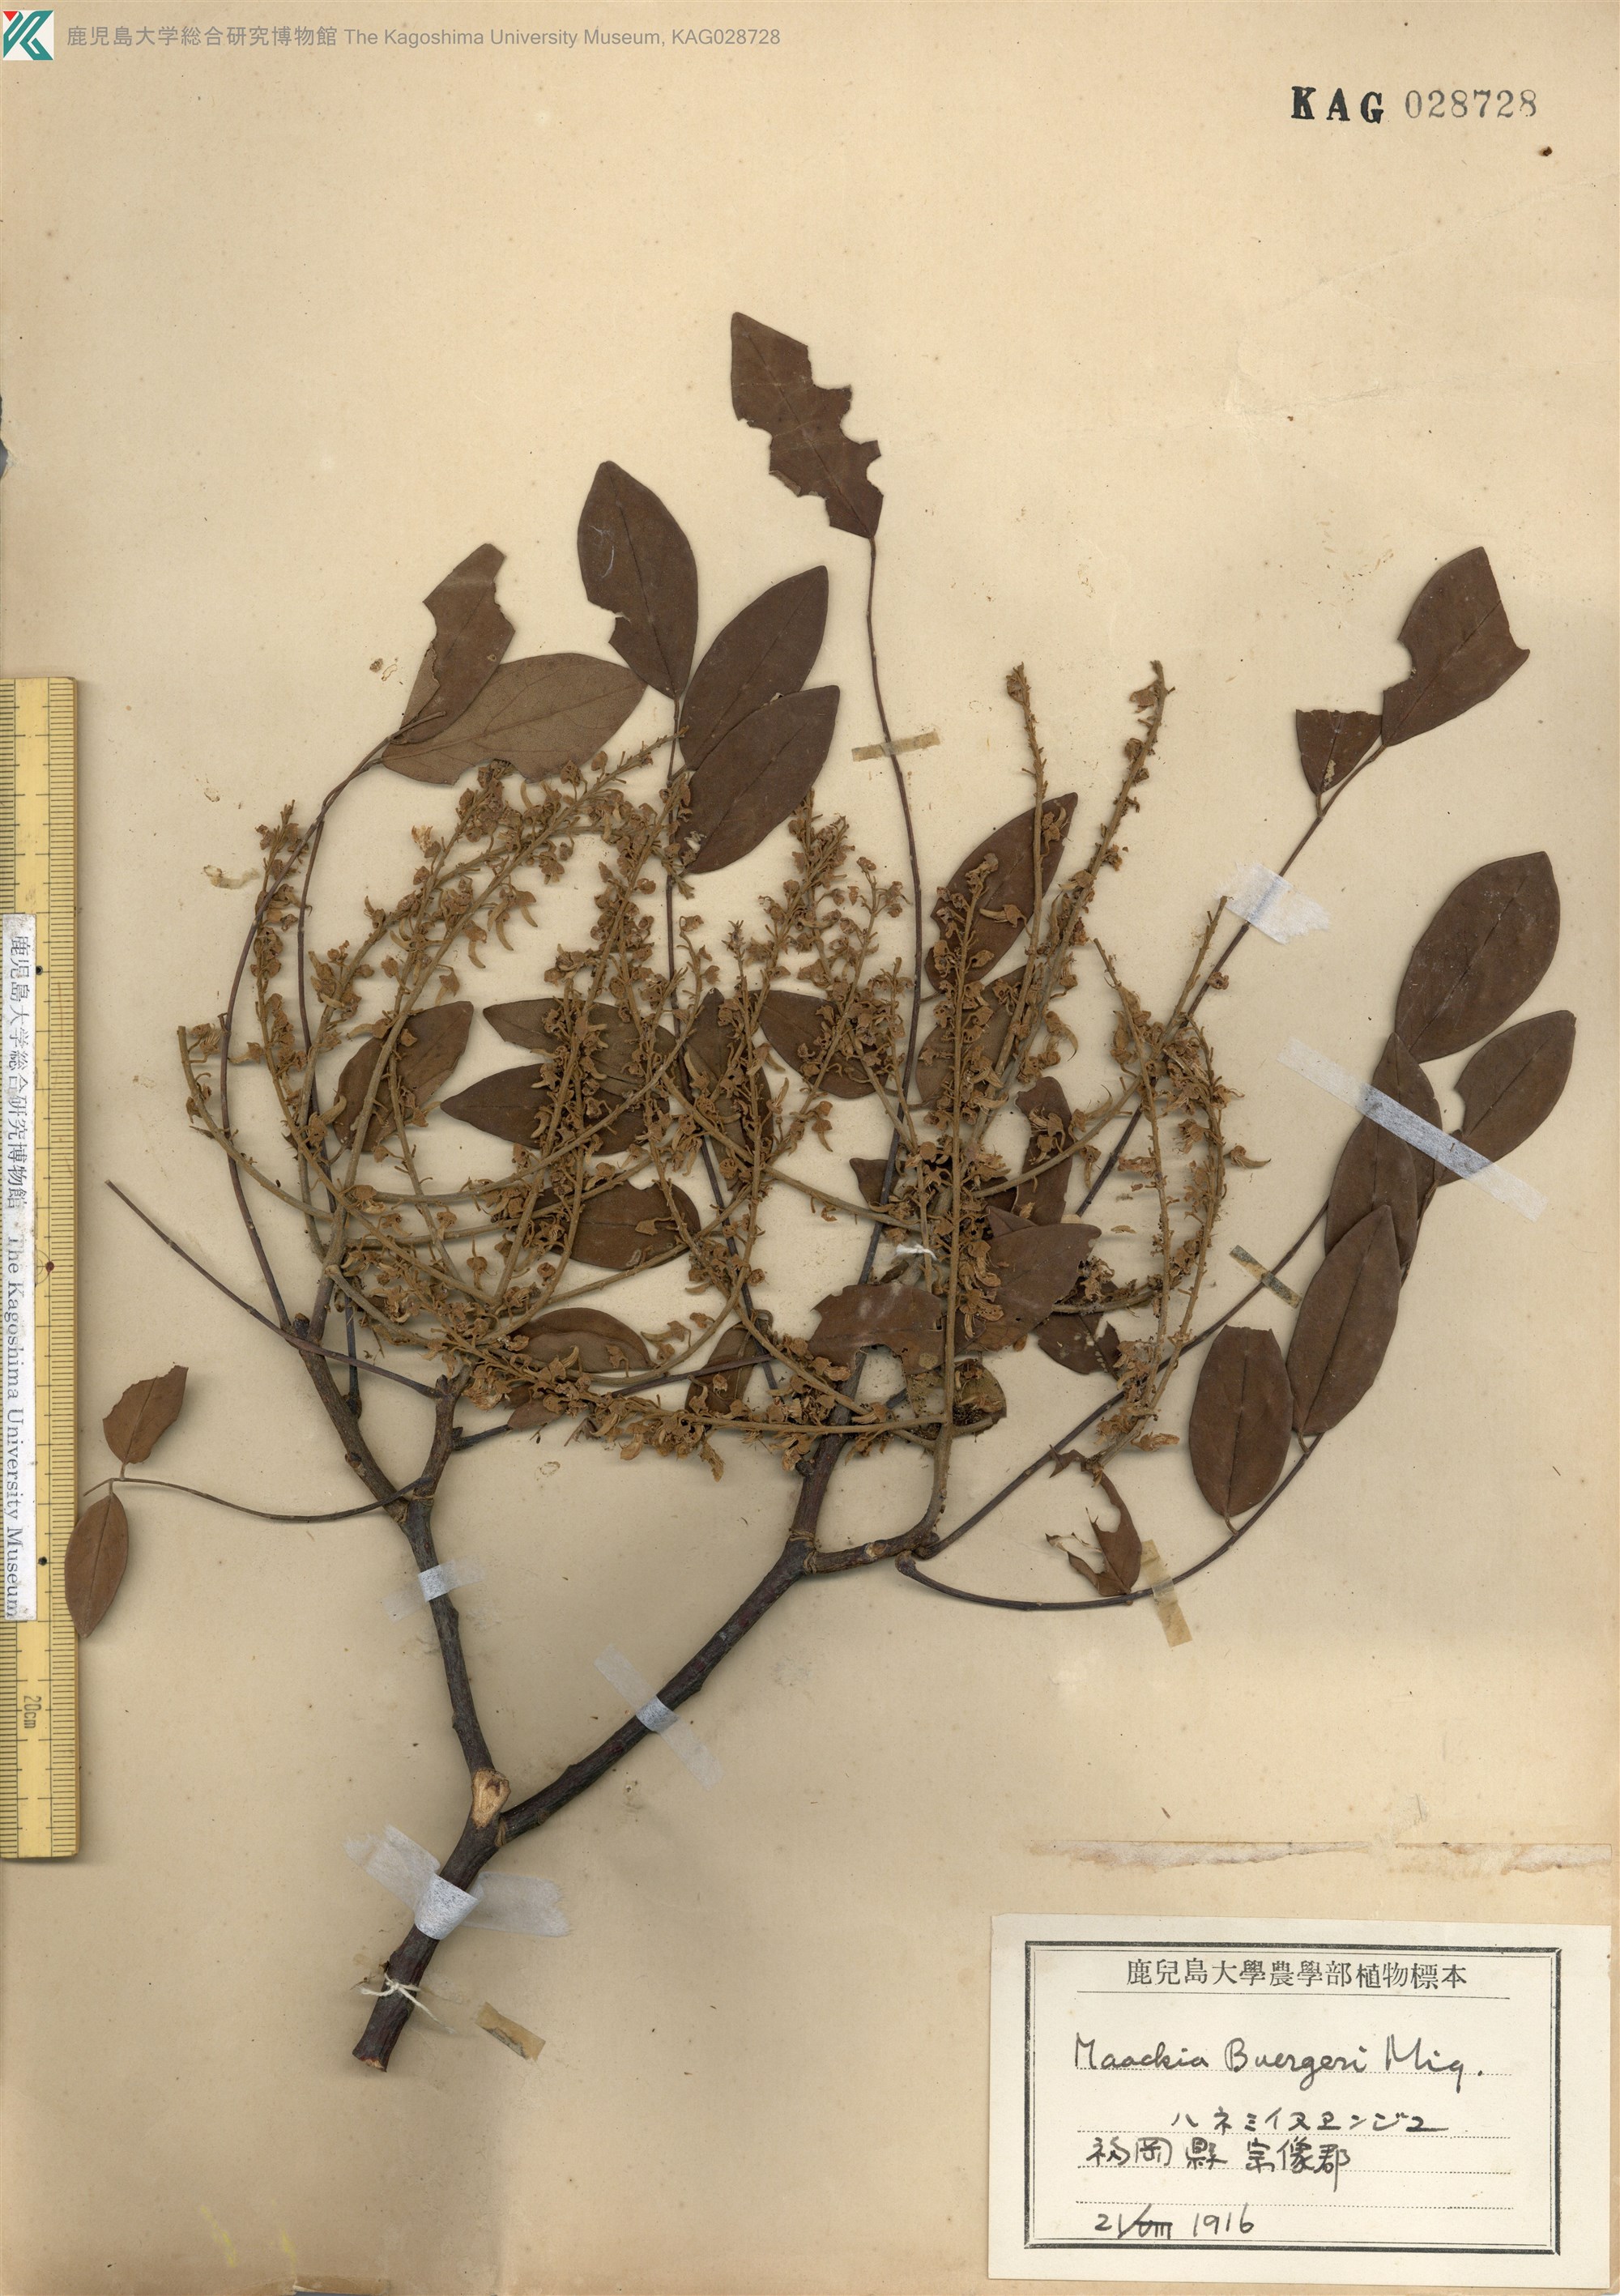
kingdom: Plantae
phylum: Tracheophyta
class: Magnoliopsida
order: Fabales
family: Fabaceae
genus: Maackia
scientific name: Maackia amurensis
